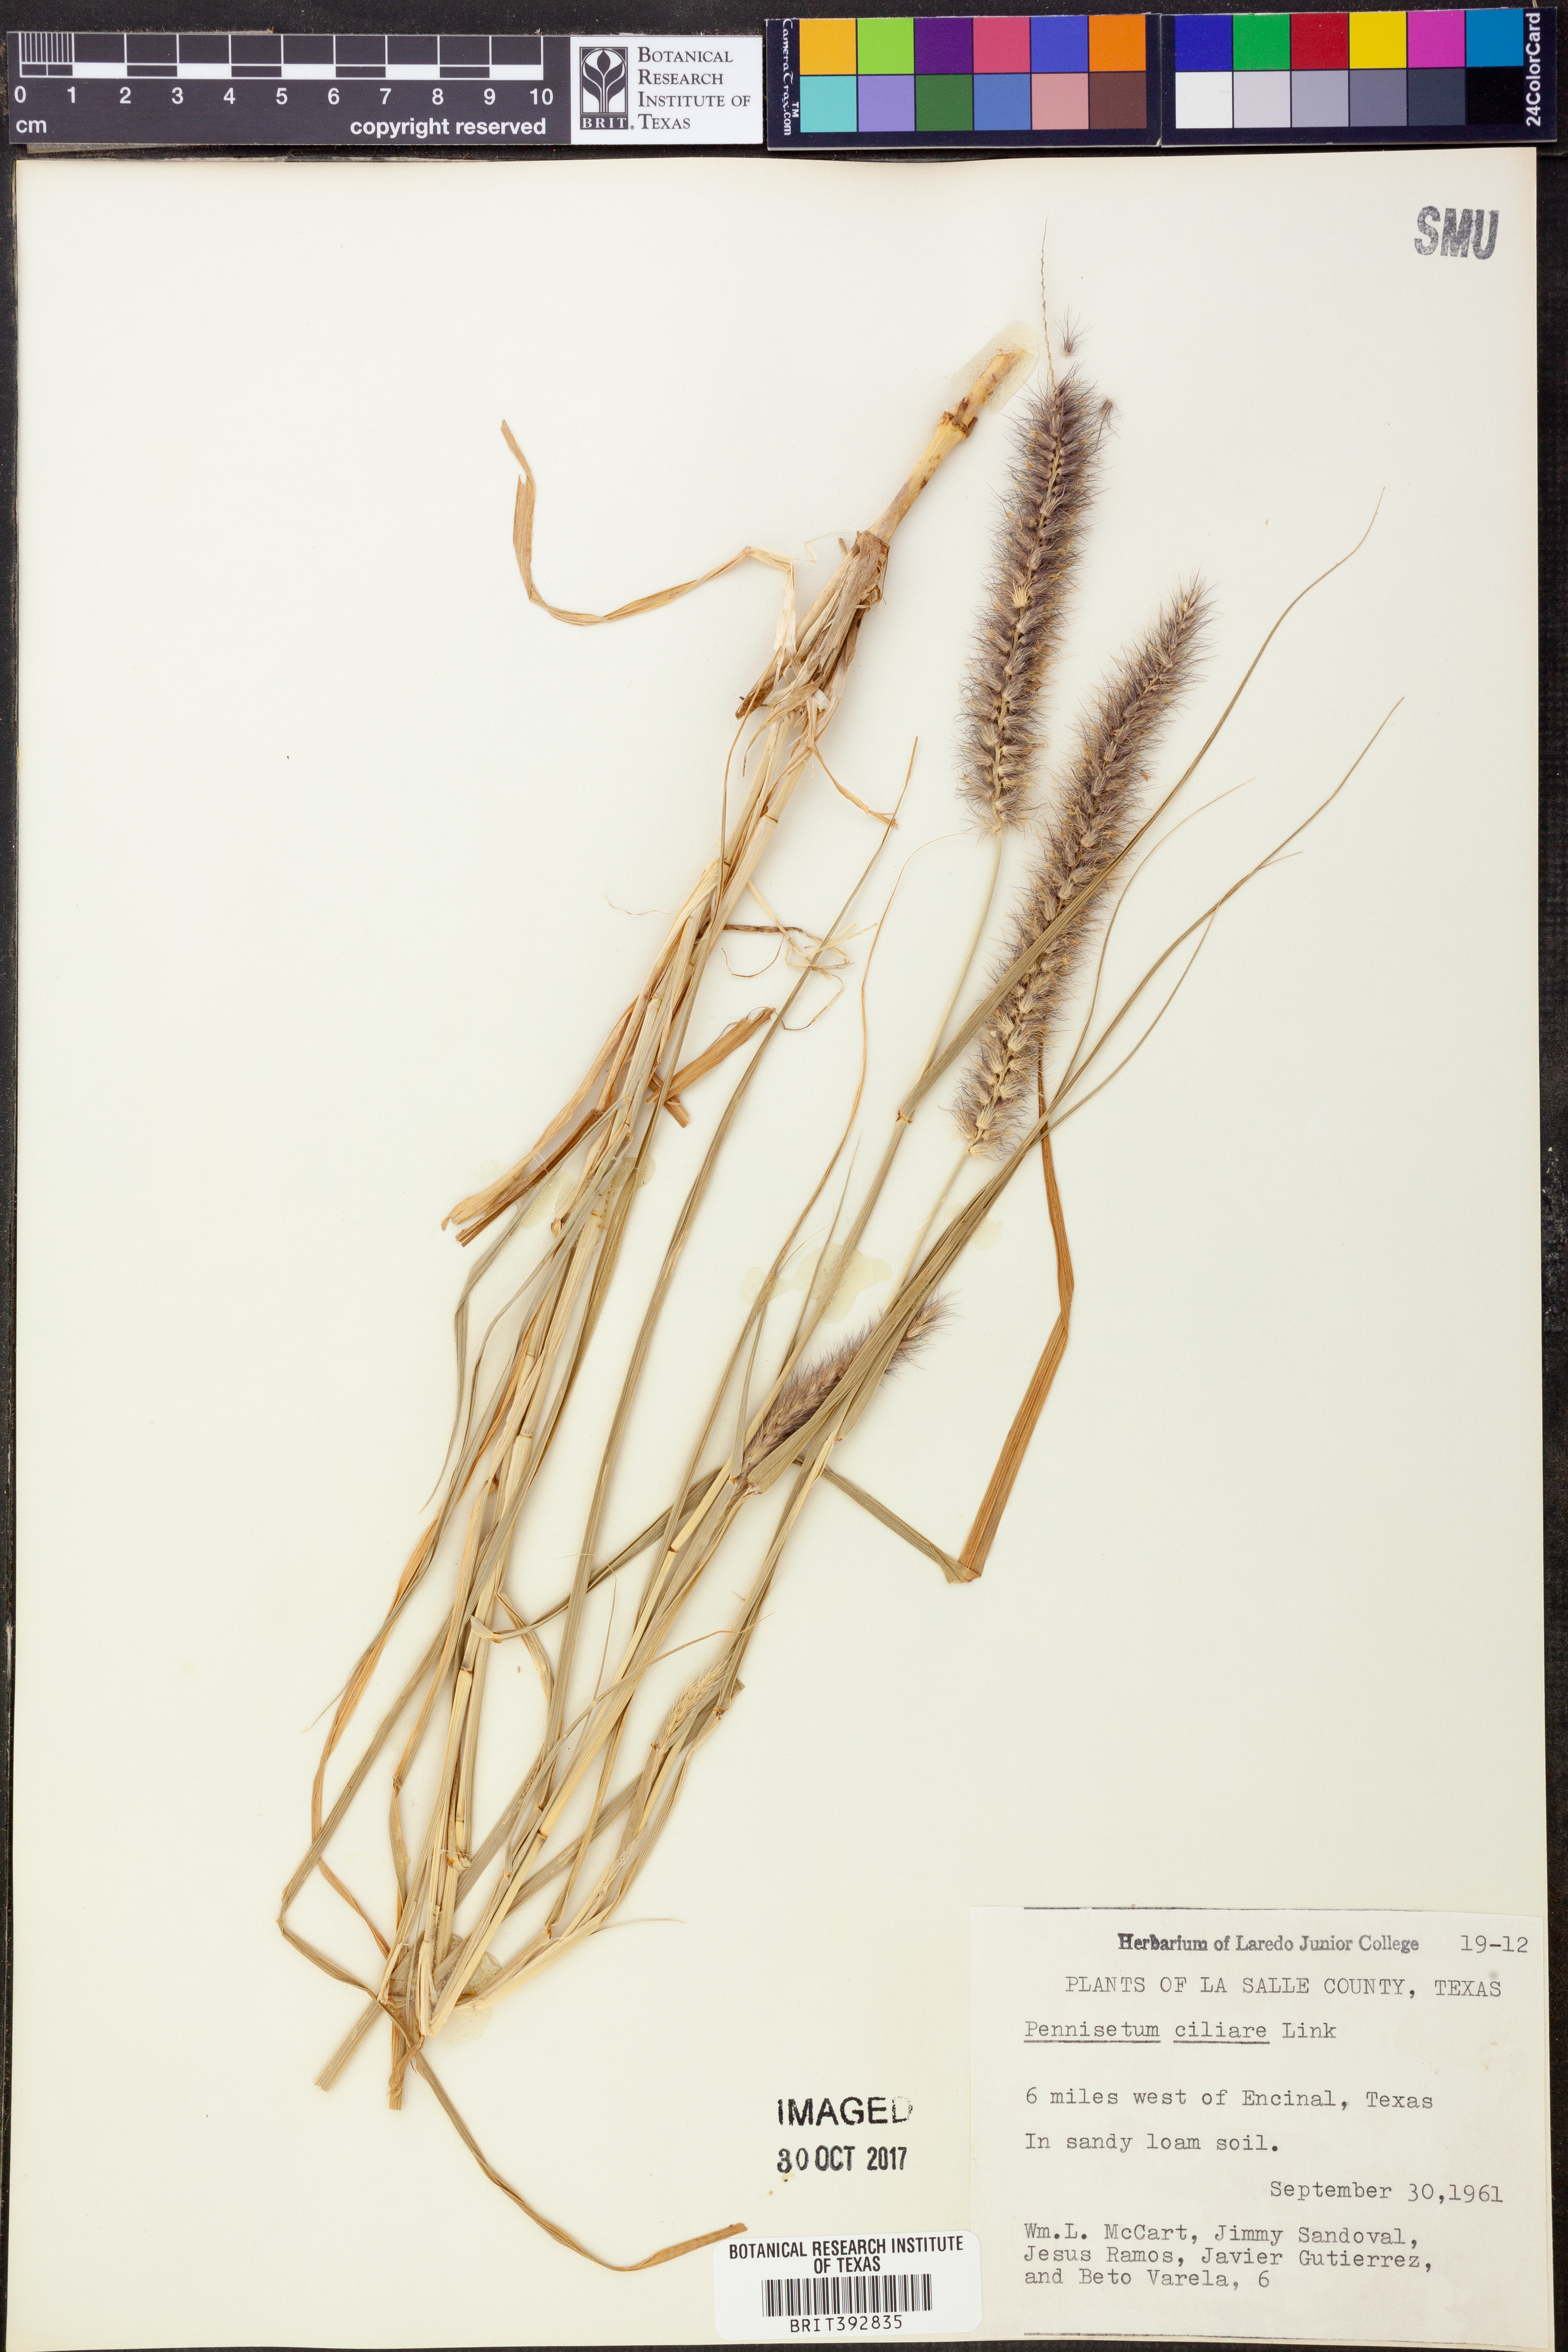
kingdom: Plantae
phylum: Tracheophyta
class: Liliopsida
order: Poales
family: Poaceae
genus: Cenchrus
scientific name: Cenchrus ciliaris
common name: Buffelgrass
